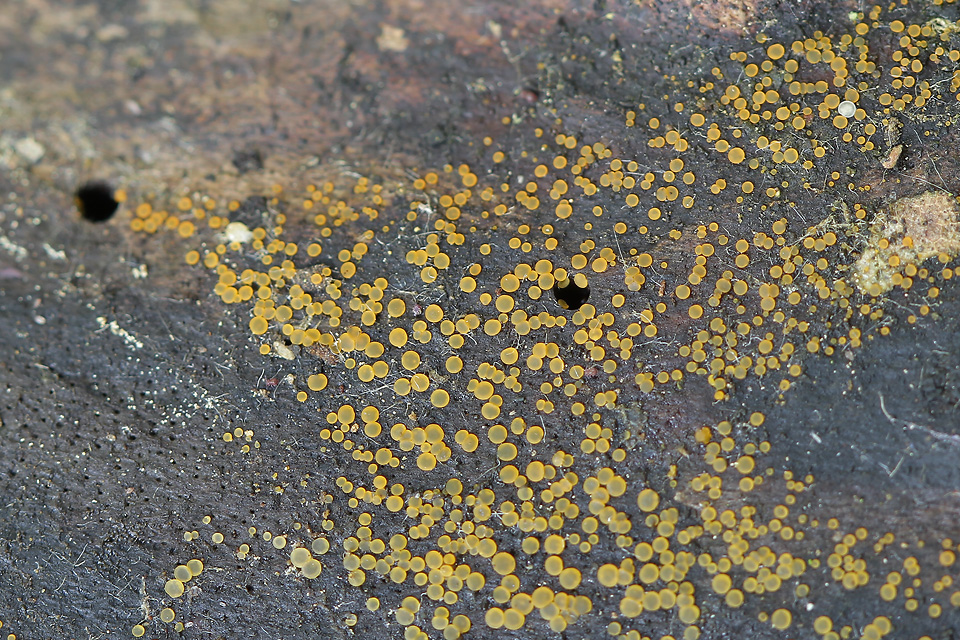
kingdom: Fungi
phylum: Ascomycota
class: Orbiliomycetes
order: Orbiliales
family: Orbiliaceae
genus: Orbilia
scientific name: Orbilia xanthostigma
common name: krumsporet voksskive
